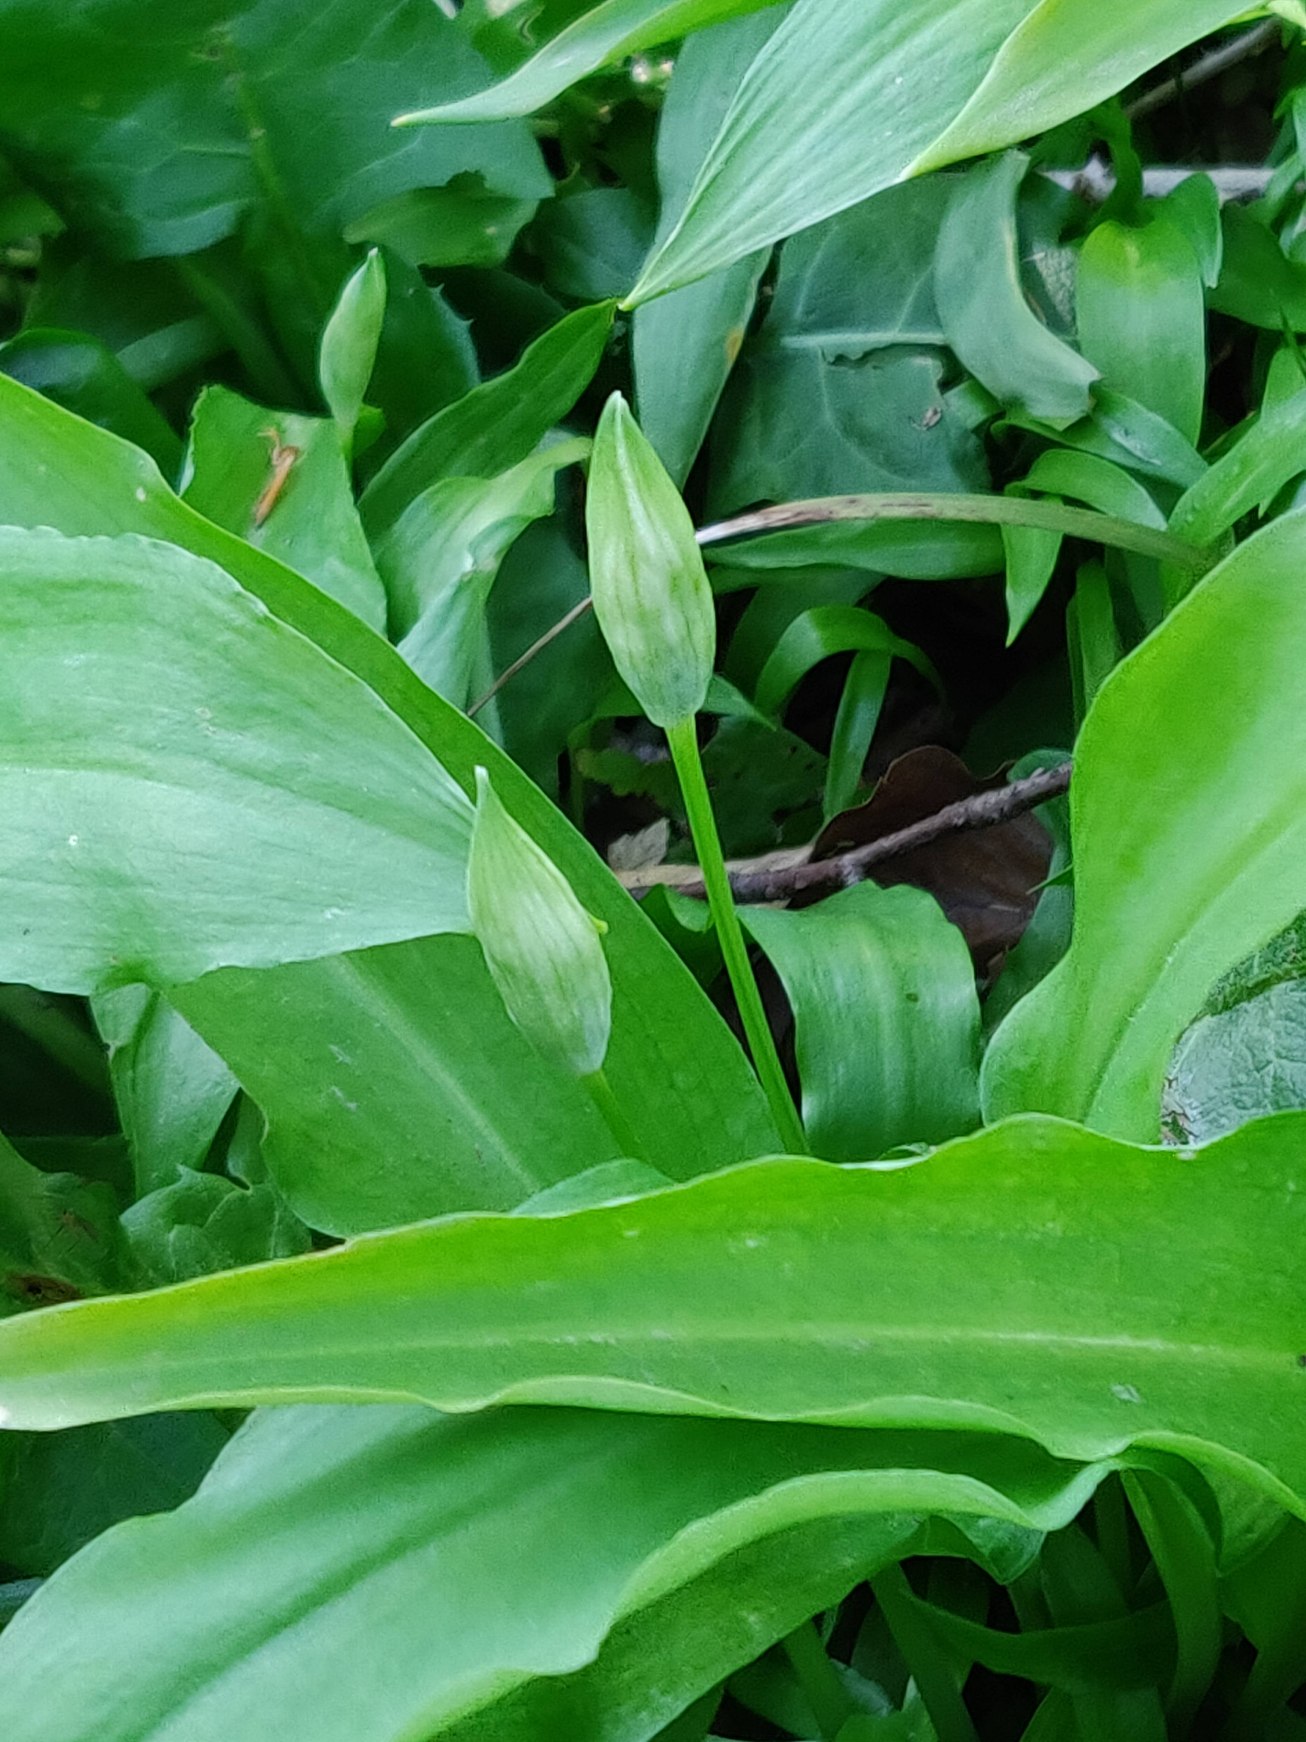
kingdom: Plantae
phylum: Tracheophyta
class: Liliopsida
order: Asparagales
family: Amaryllidaceae
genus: Allium
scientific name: Allium ursinum
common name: Rams-løg
